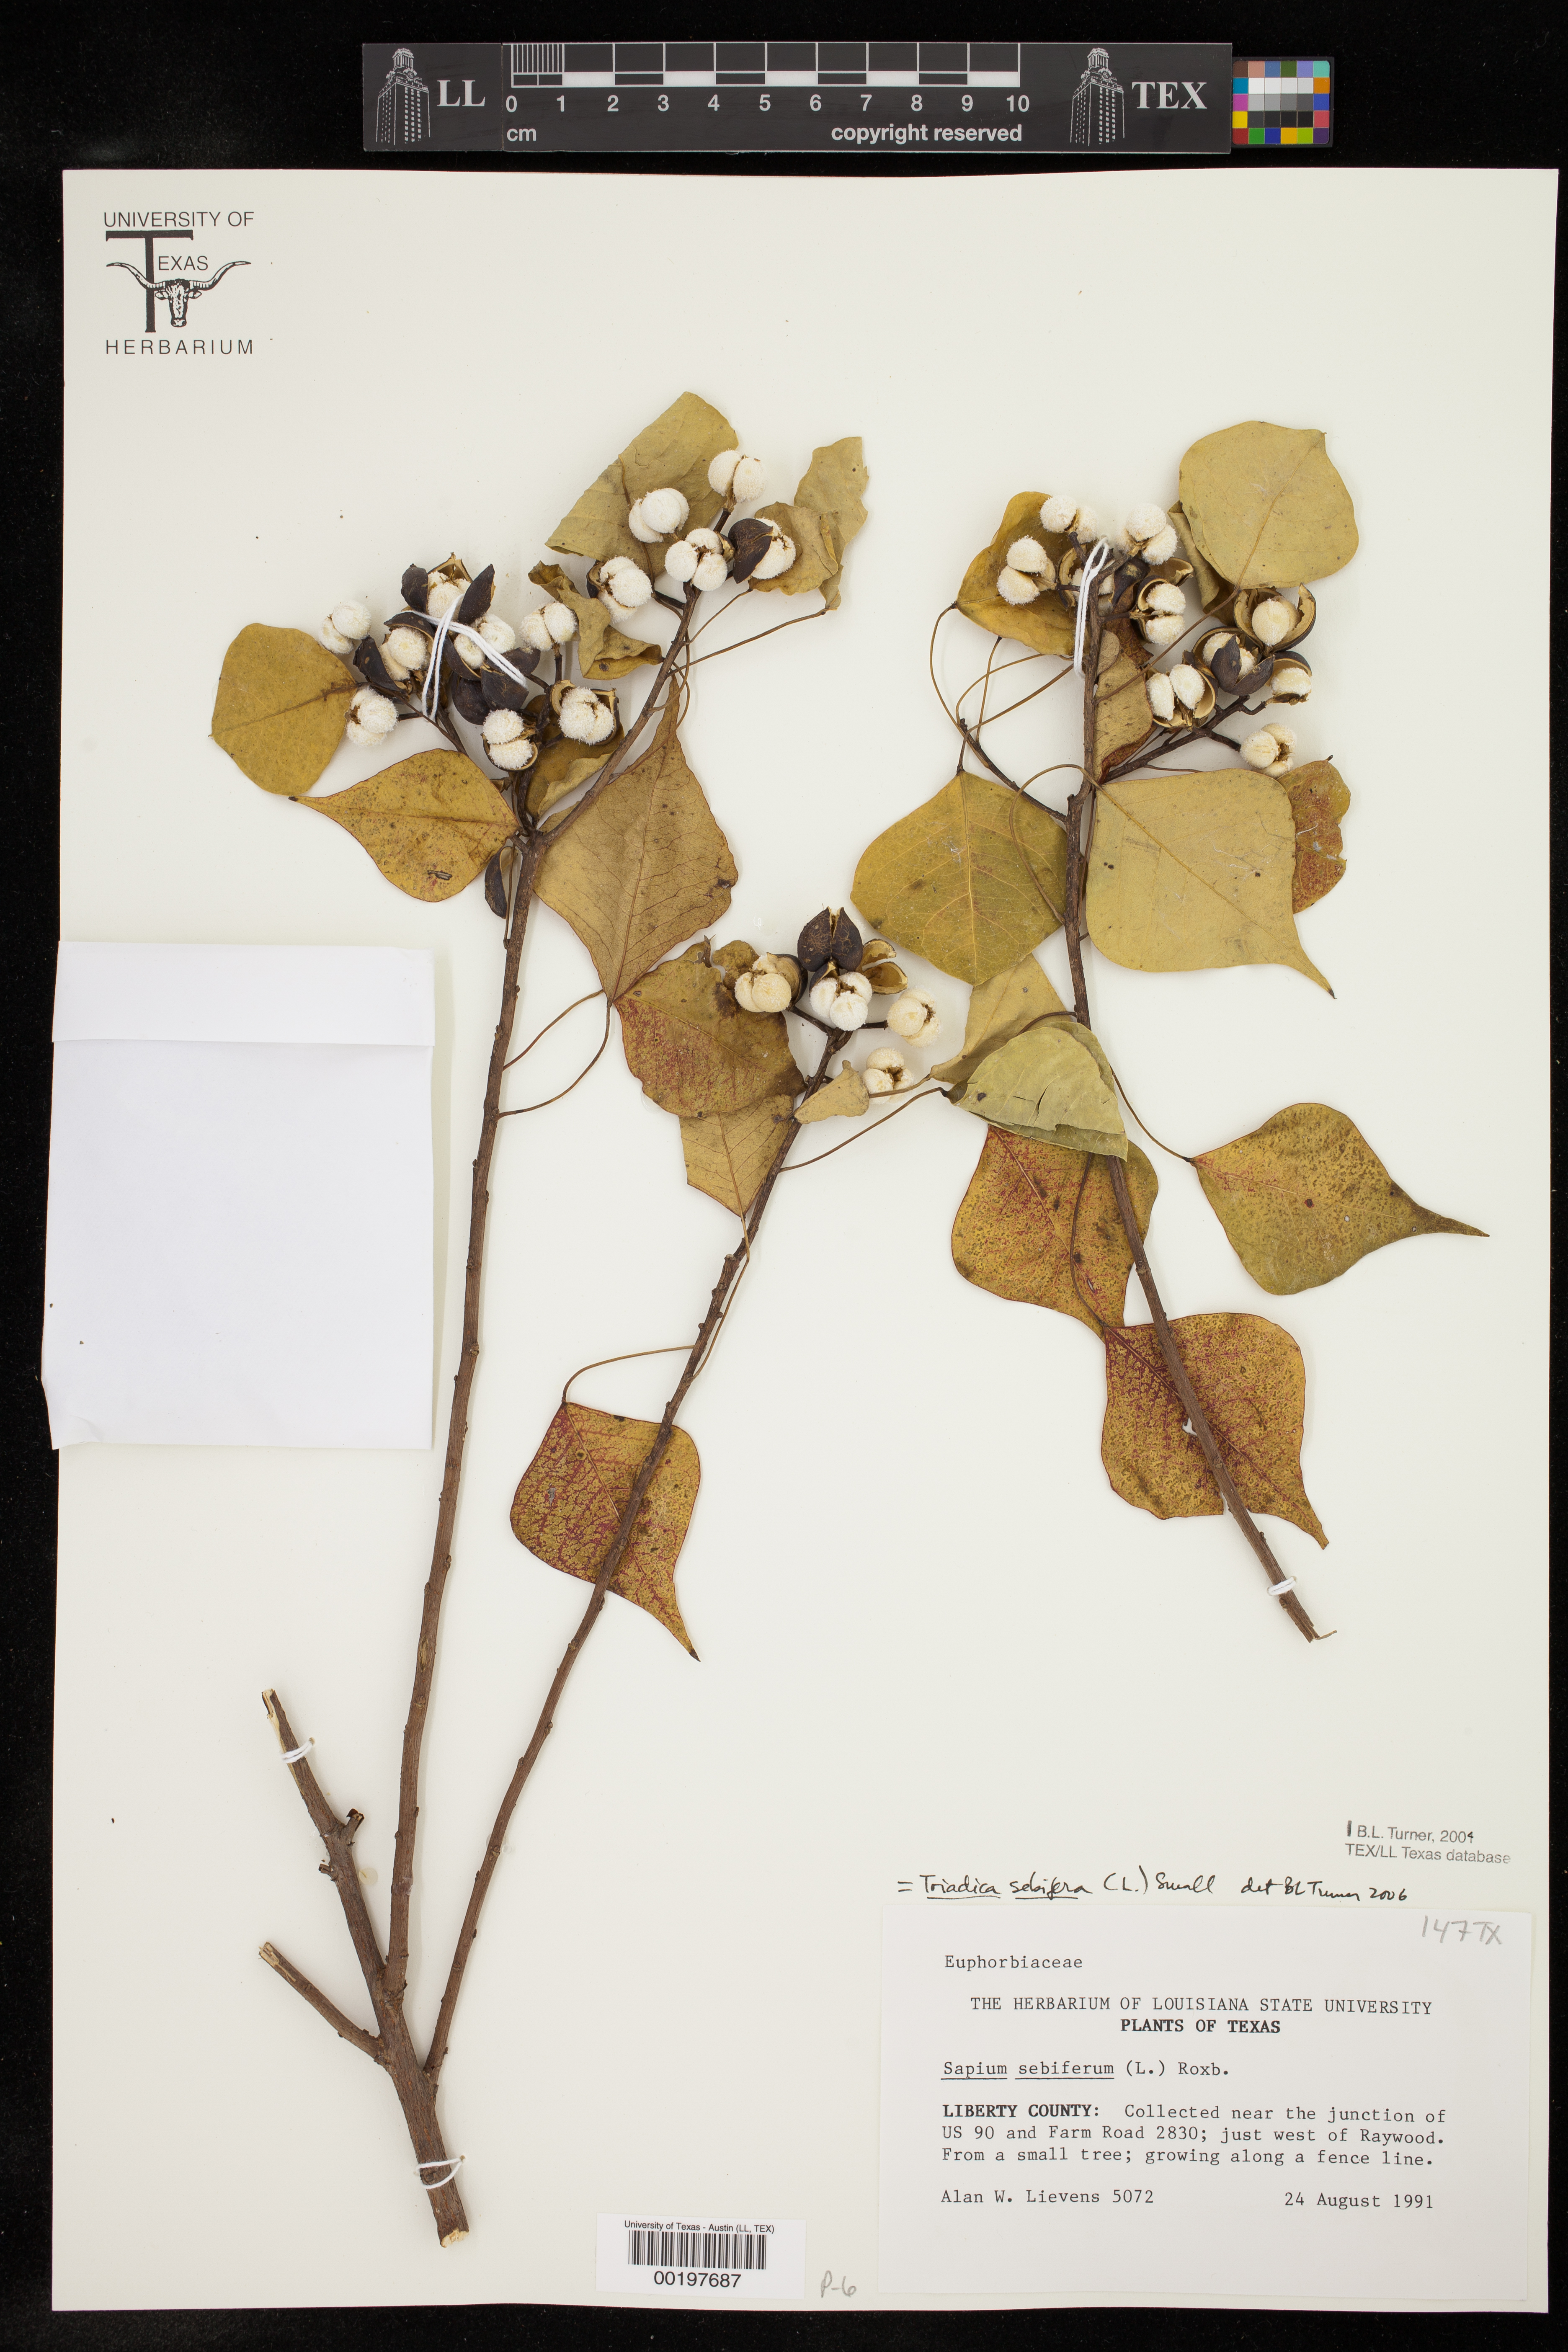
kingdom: Plantae
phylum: Tracheophyta
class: Magnoliopsida
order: Malpighiales
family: Euphorbiaceae
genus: Triadica
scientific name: Triadica sebifera
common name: Chinese tallow
